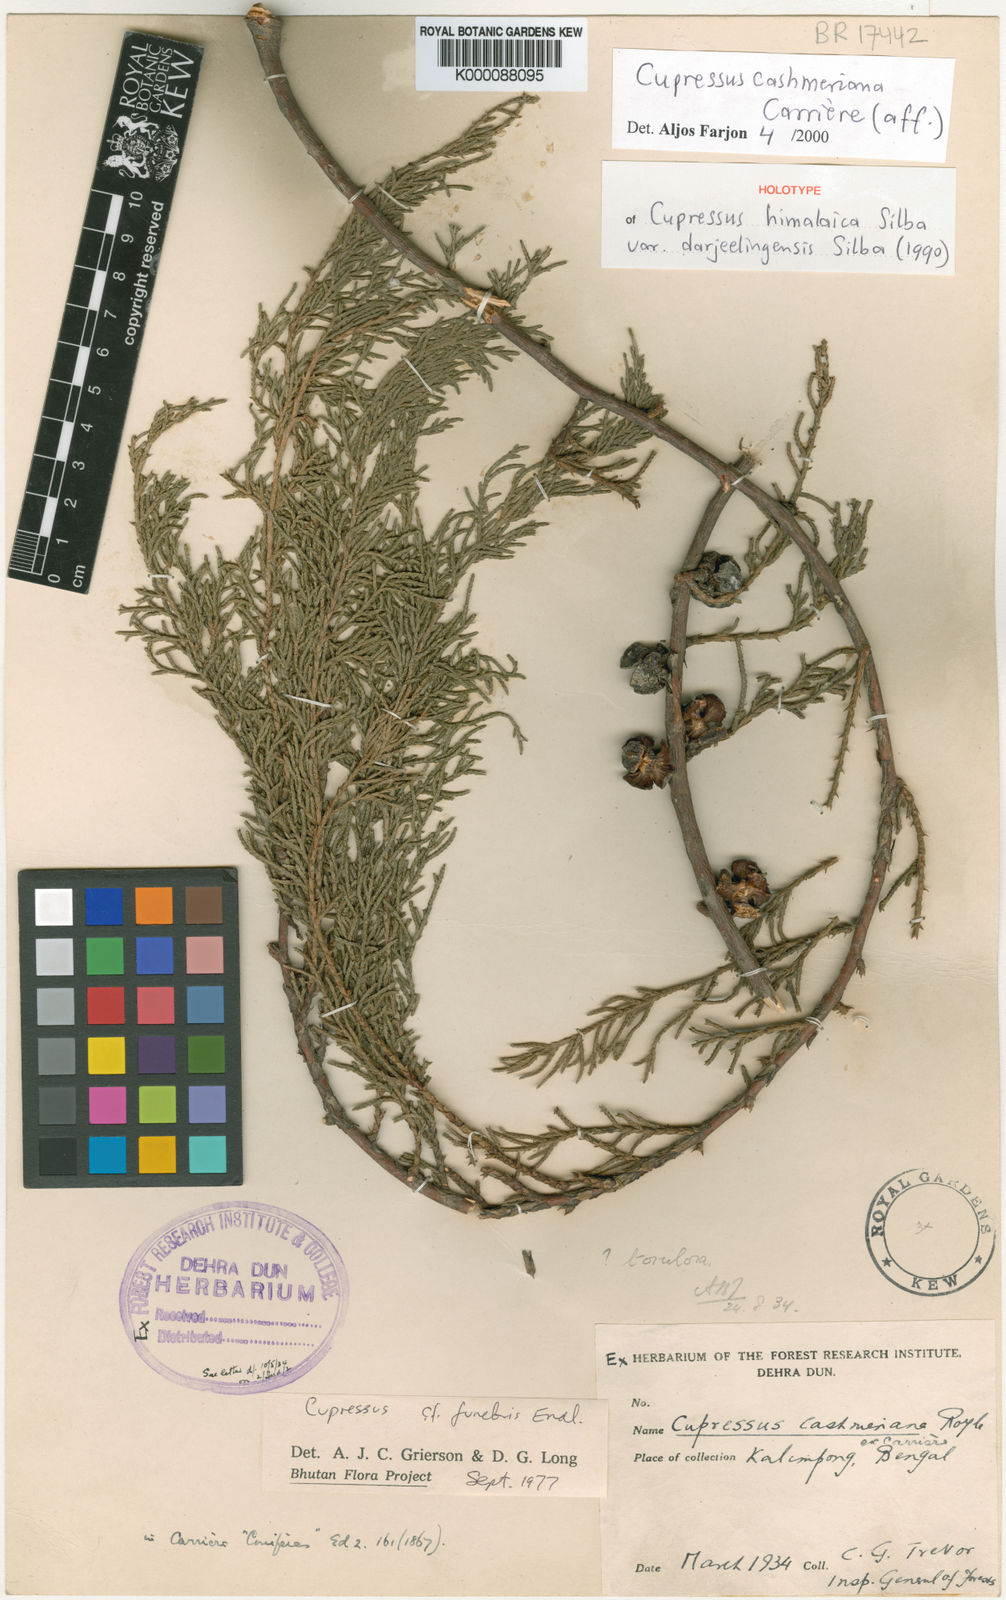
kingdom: Plantae
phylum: Tracheophyta
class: Pinopsida
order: Pinales
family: Cupressaceae
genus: Cupressus
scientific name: Cupressus
